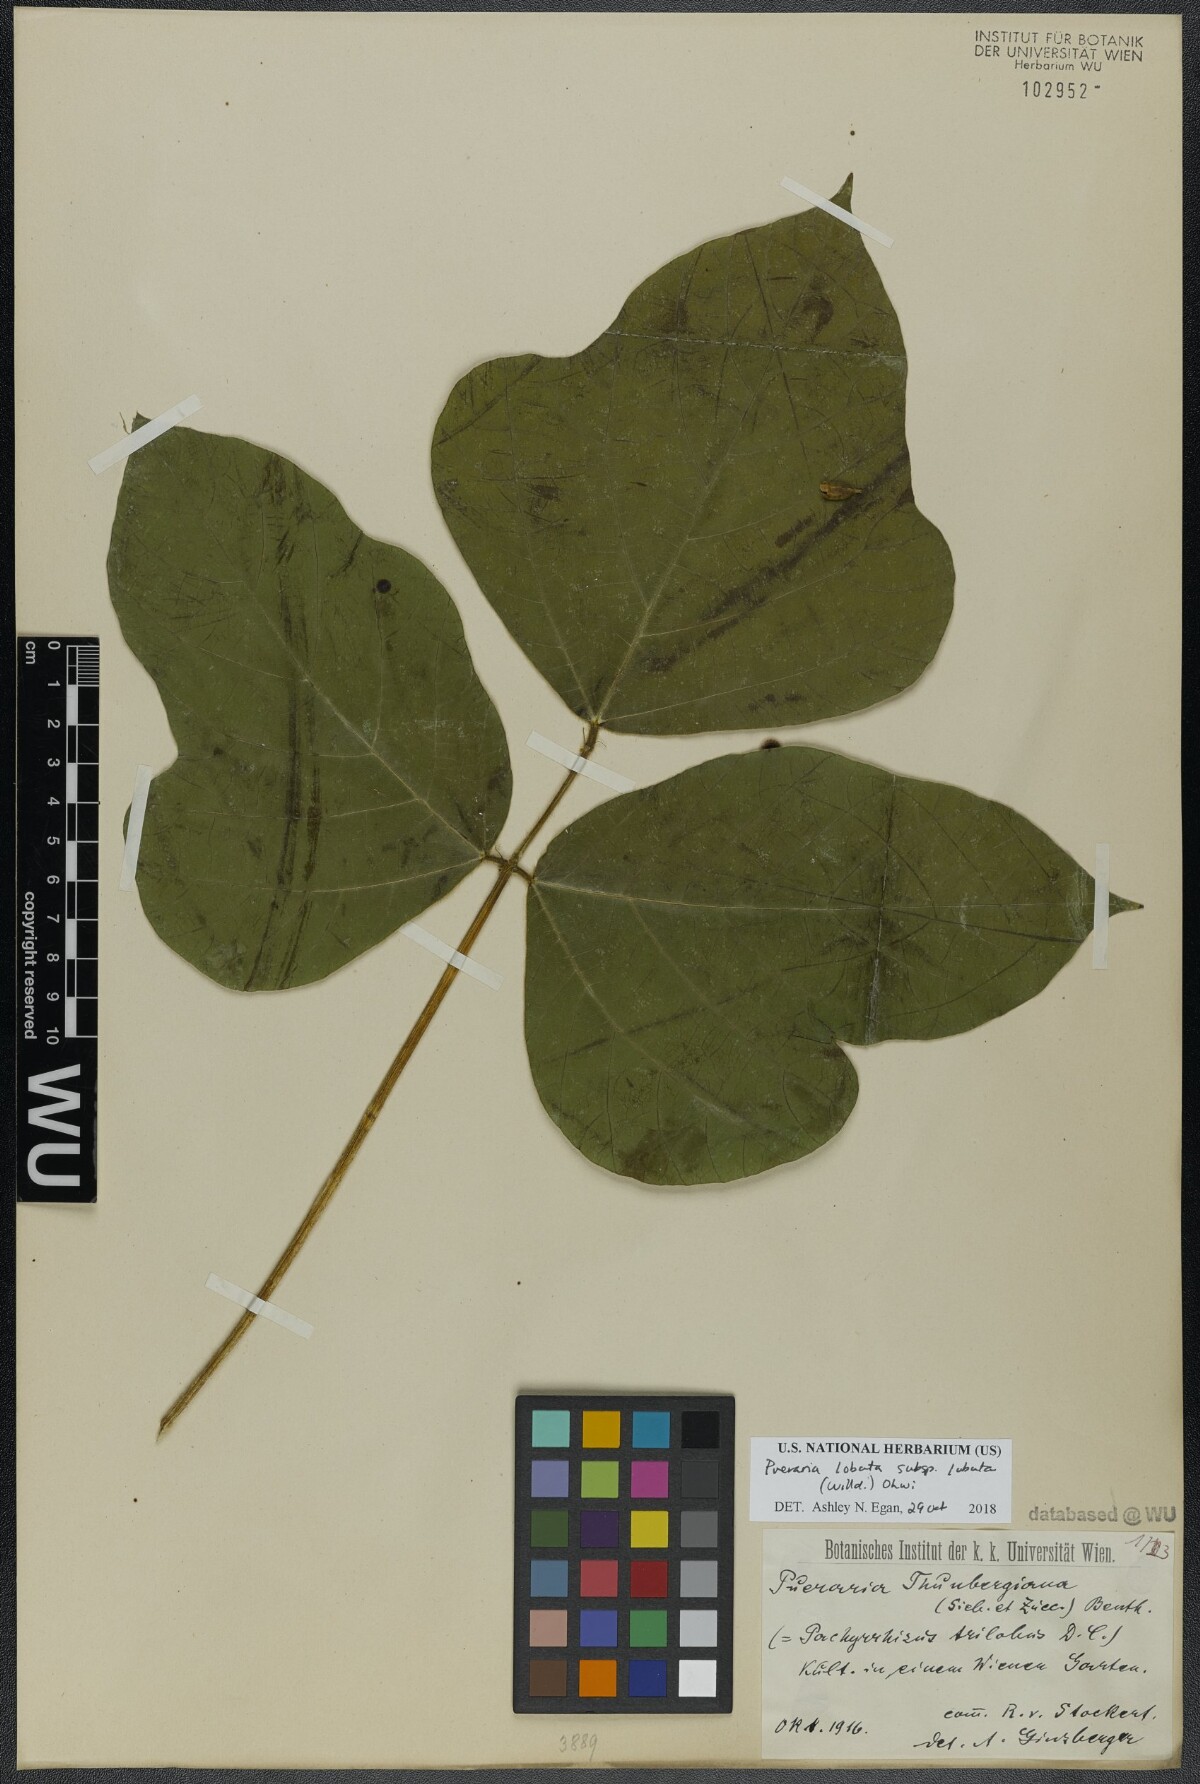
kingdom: Plantae
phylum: Tracheophyta
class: Magnoliopsida
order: Fabales
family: Fabaceae
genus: Pueraria
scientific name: Pueraria montana
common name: Kudzu
